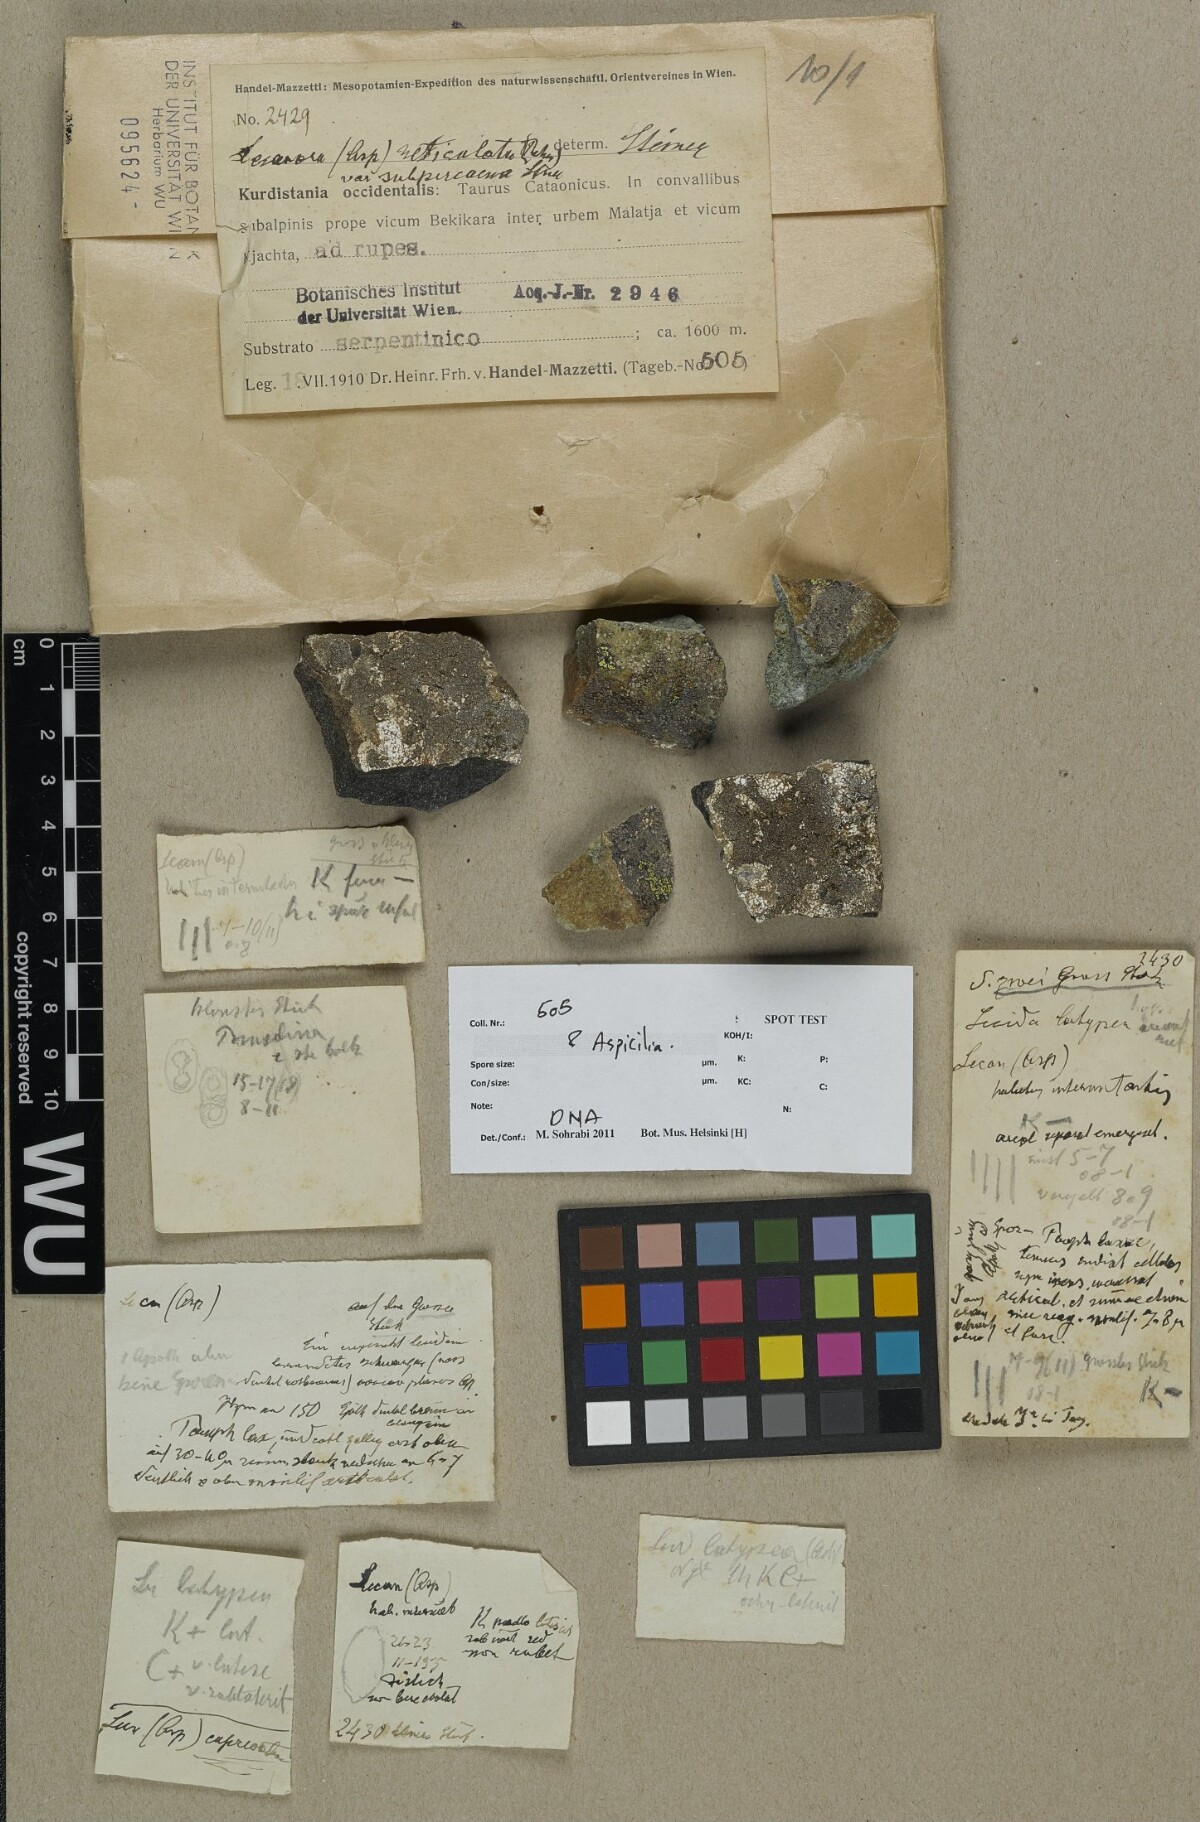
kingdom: Fungi
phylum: Ascomycota
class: Lecanoromycetes
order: Hymeneliales
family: Hymeneliaceae
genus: Aspicilia
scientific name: Aspicilia
